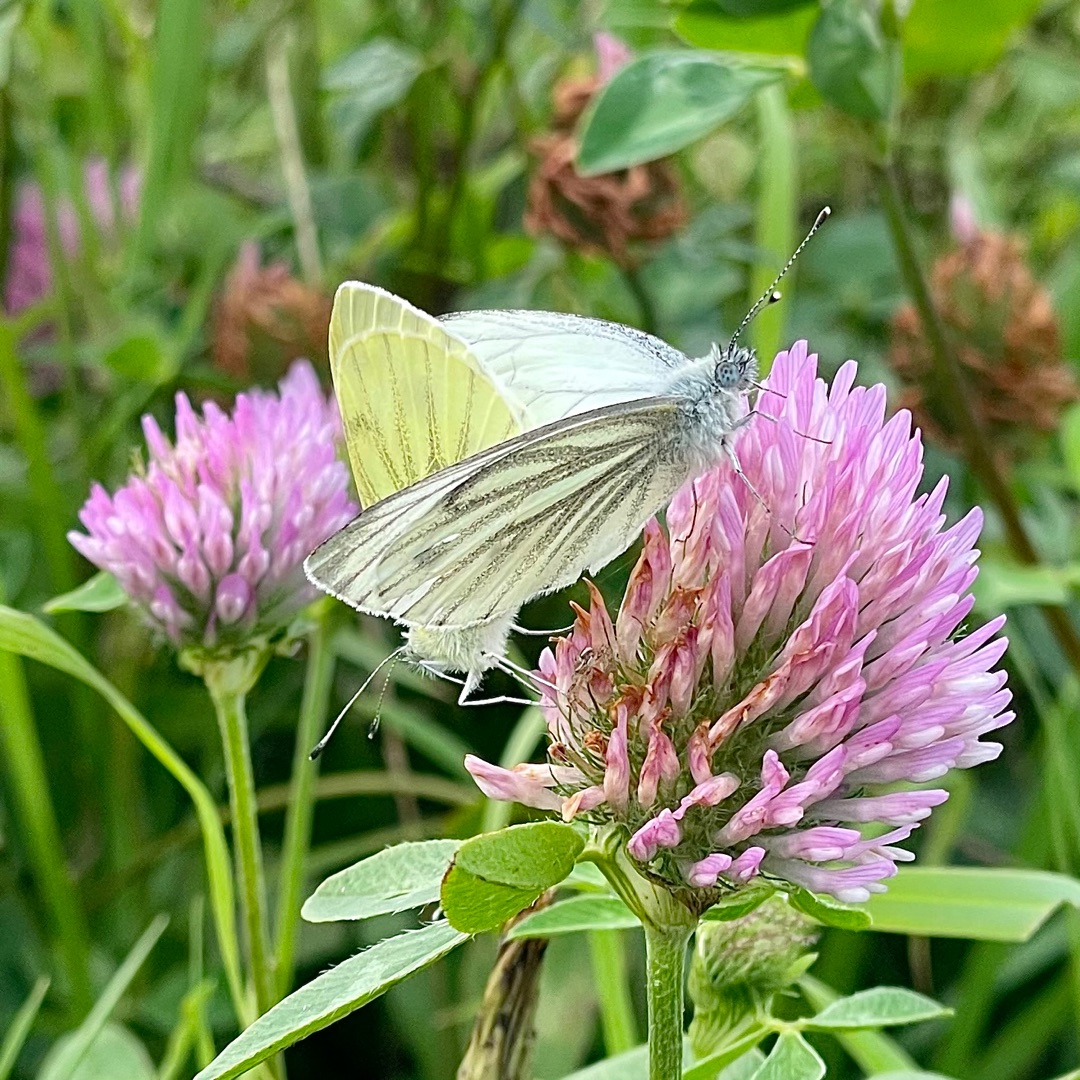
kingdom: Animalia
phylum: Arthropoda
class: Insecta
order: Lepidoptera
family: Pieridae
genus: Pieris
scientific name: Pieris napi
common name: Grønåret kålsommerfugl
